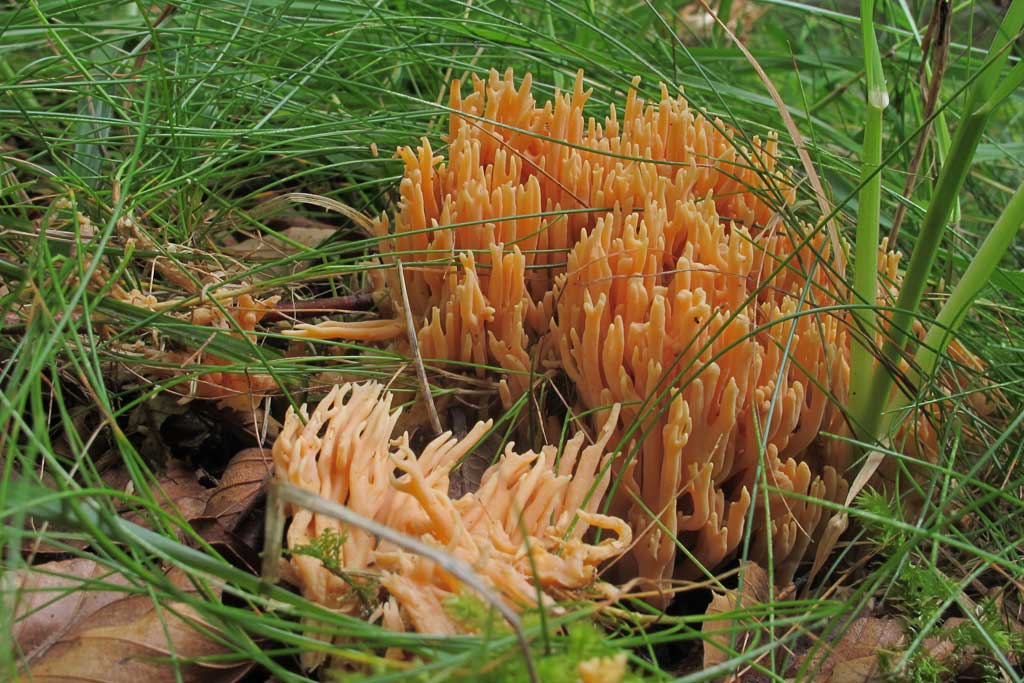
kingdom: Fungi
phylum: Basidiomycota
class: Agaricomycetes
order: Gomphales
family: Gomphaceae
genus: Ramaria
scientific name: Ramaria formosa
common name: smuk koralsvamp
